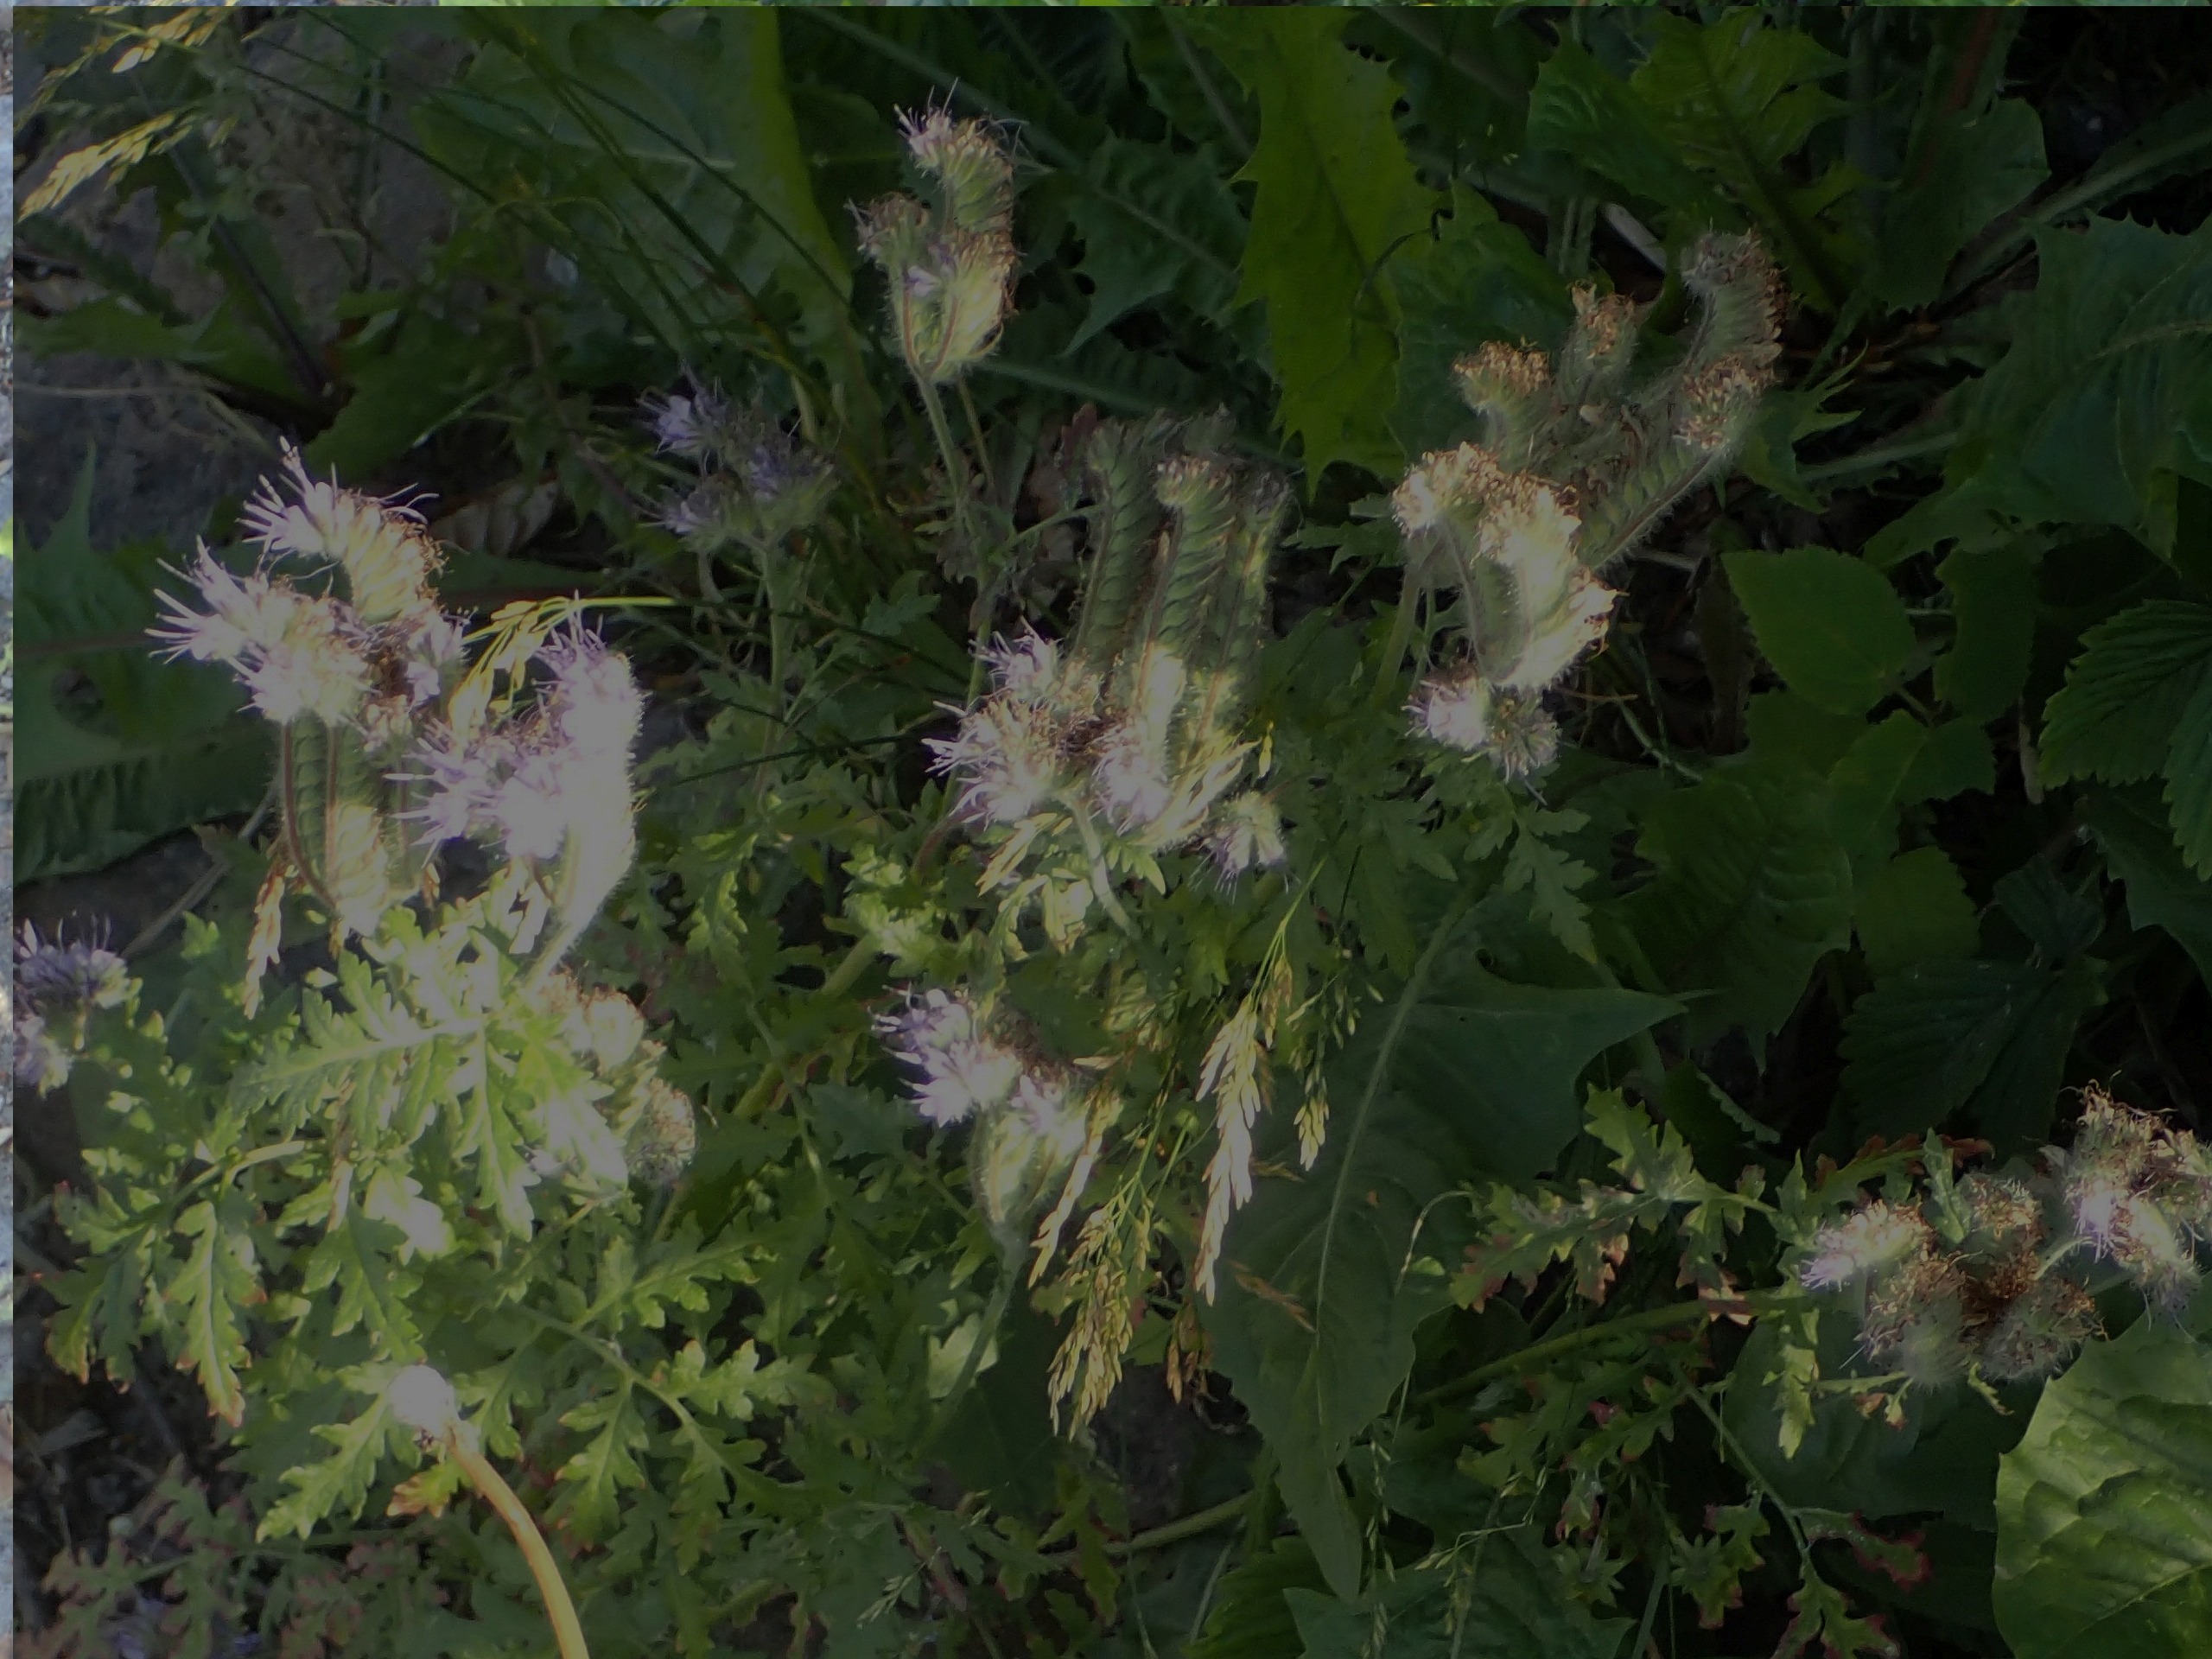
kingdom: Plantae
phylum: Tracheophyta
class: Magnoliopsida
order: Boraginales
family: Hydrophyllaceae
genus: Phacelia
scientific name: Phacelia tanacetifolia
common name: Honningurt
